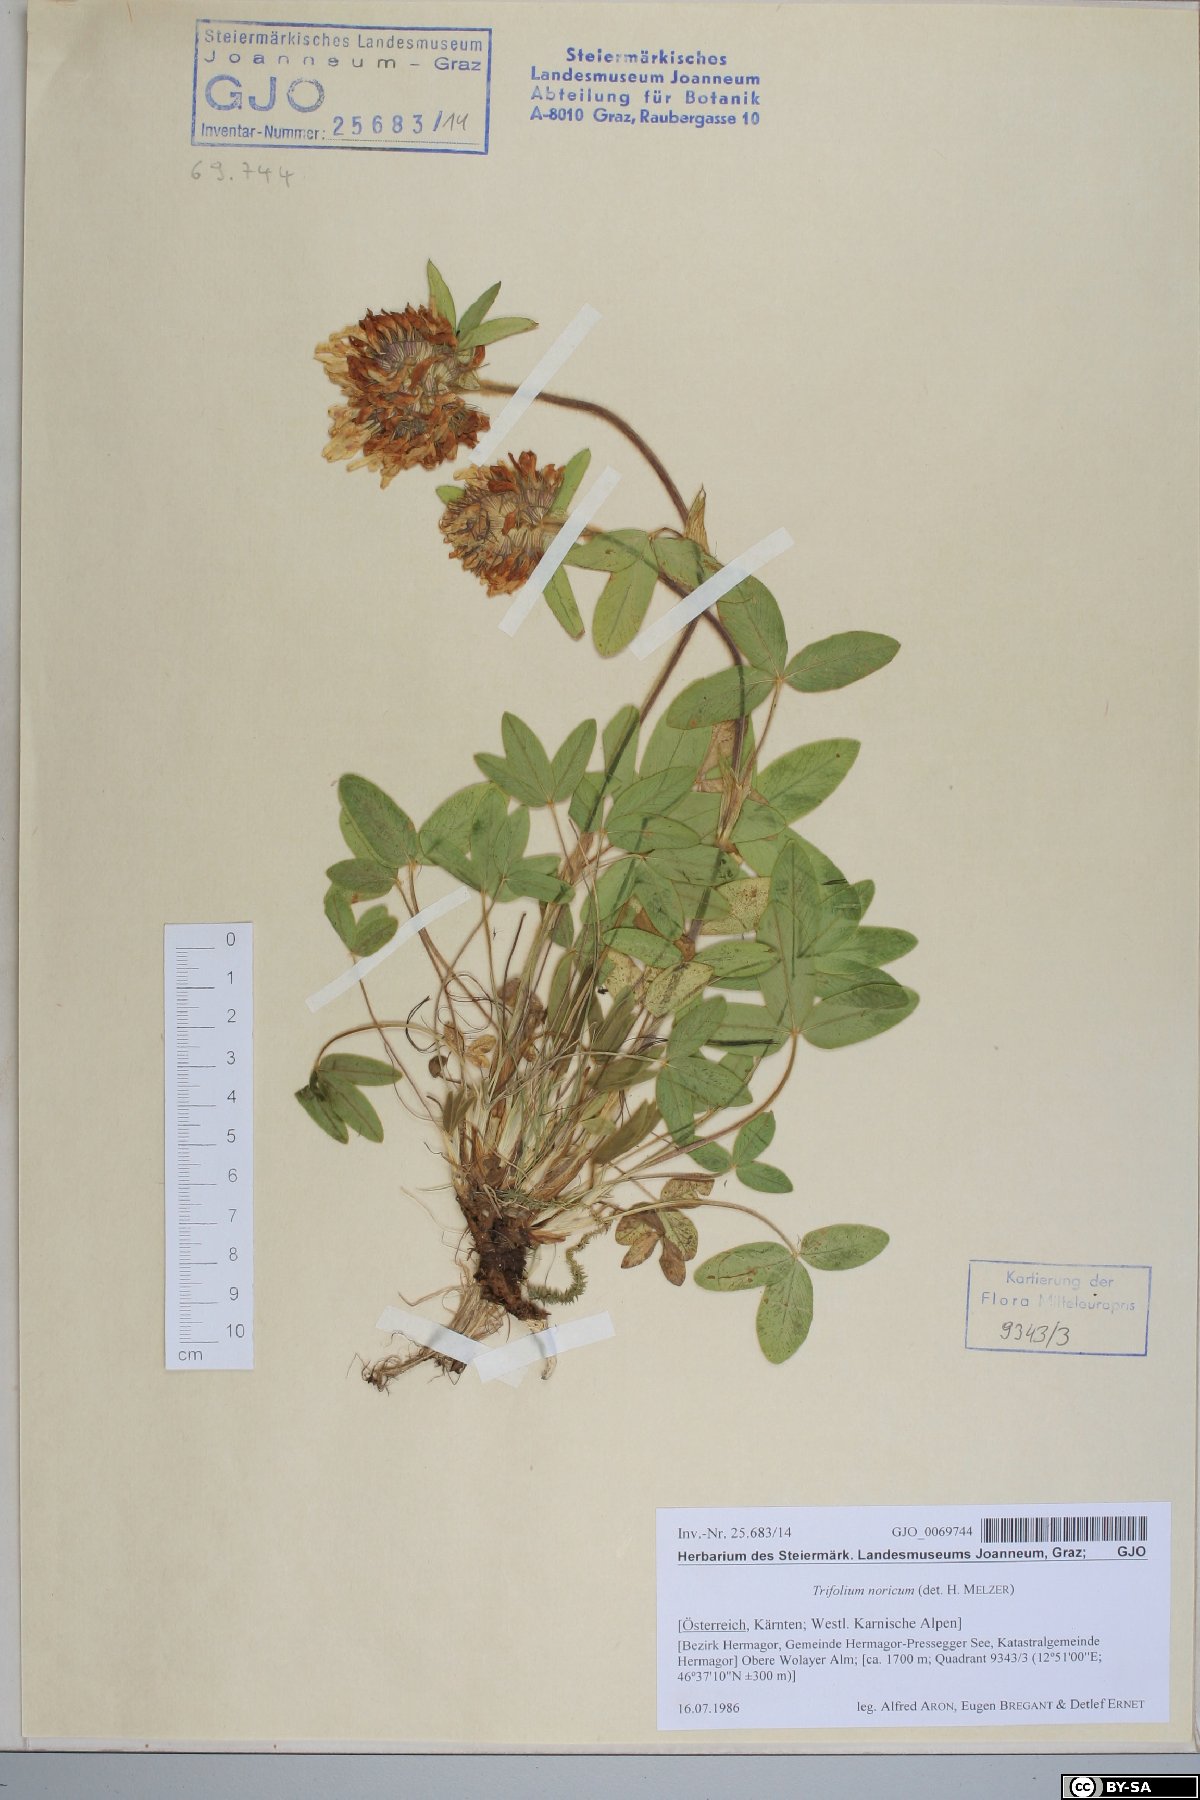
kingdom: Plantae
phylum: Tracheophyta
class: Magnoliopsida
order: Fabales
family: Fabaceae
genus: Trifolium
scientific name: Trifolium noricum
